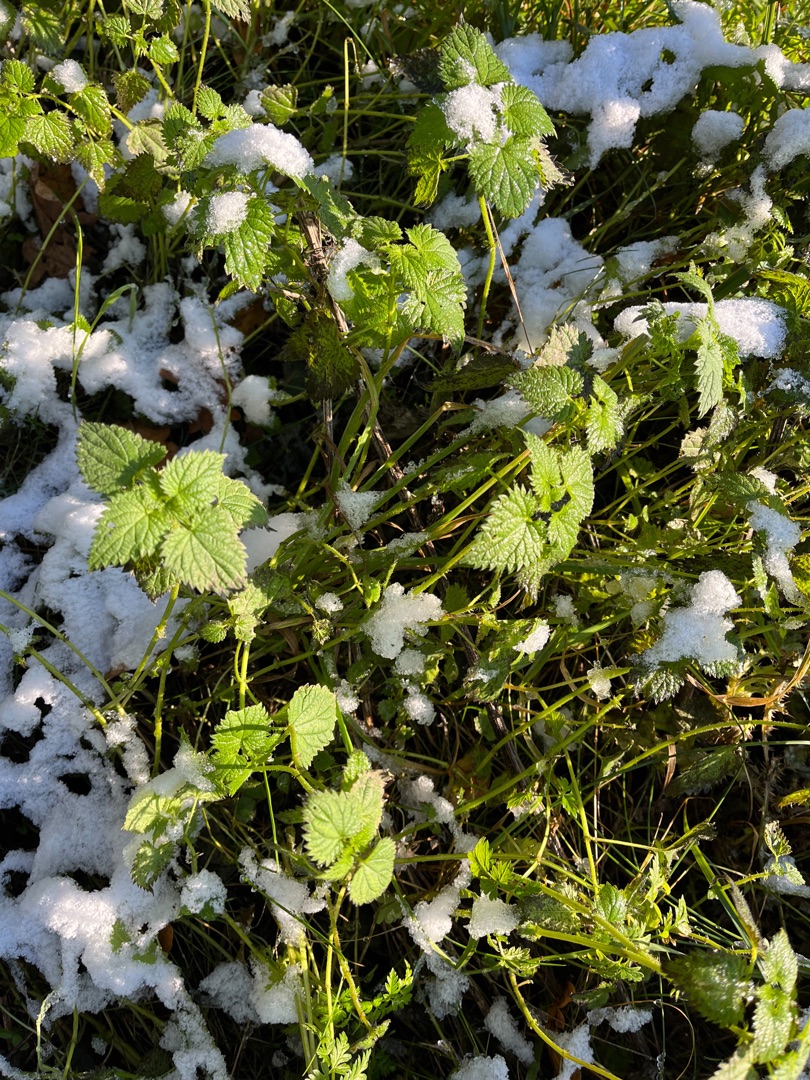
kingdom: Plantae
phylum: Tracheophyta
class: Magnoliopsida
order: Rosales
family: Urticaceae
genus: Urtica
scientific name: Urtica dioica
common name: Stor nælde
